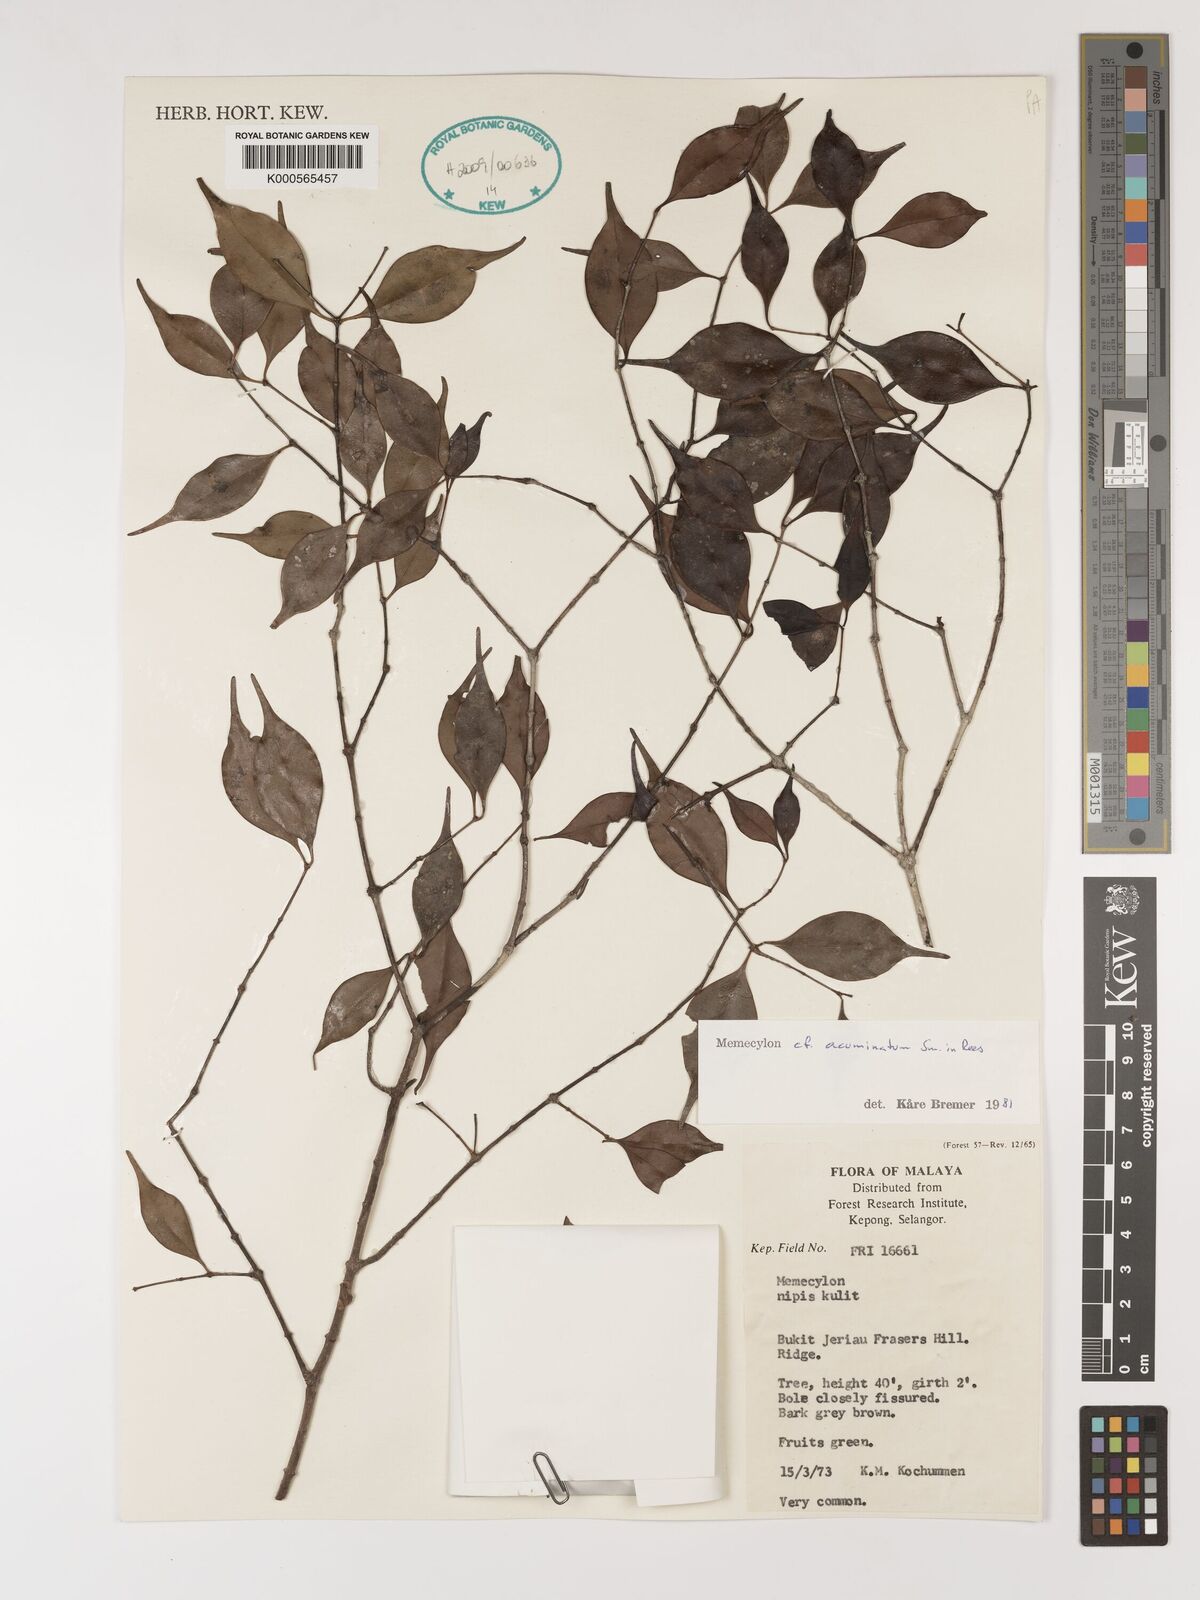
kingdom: Plantae
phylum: Tracheophyta
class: Magnoliopsida
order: Myrtales
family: Melastomataceae
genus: Memecylon
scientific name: Memecylon acuminatum
